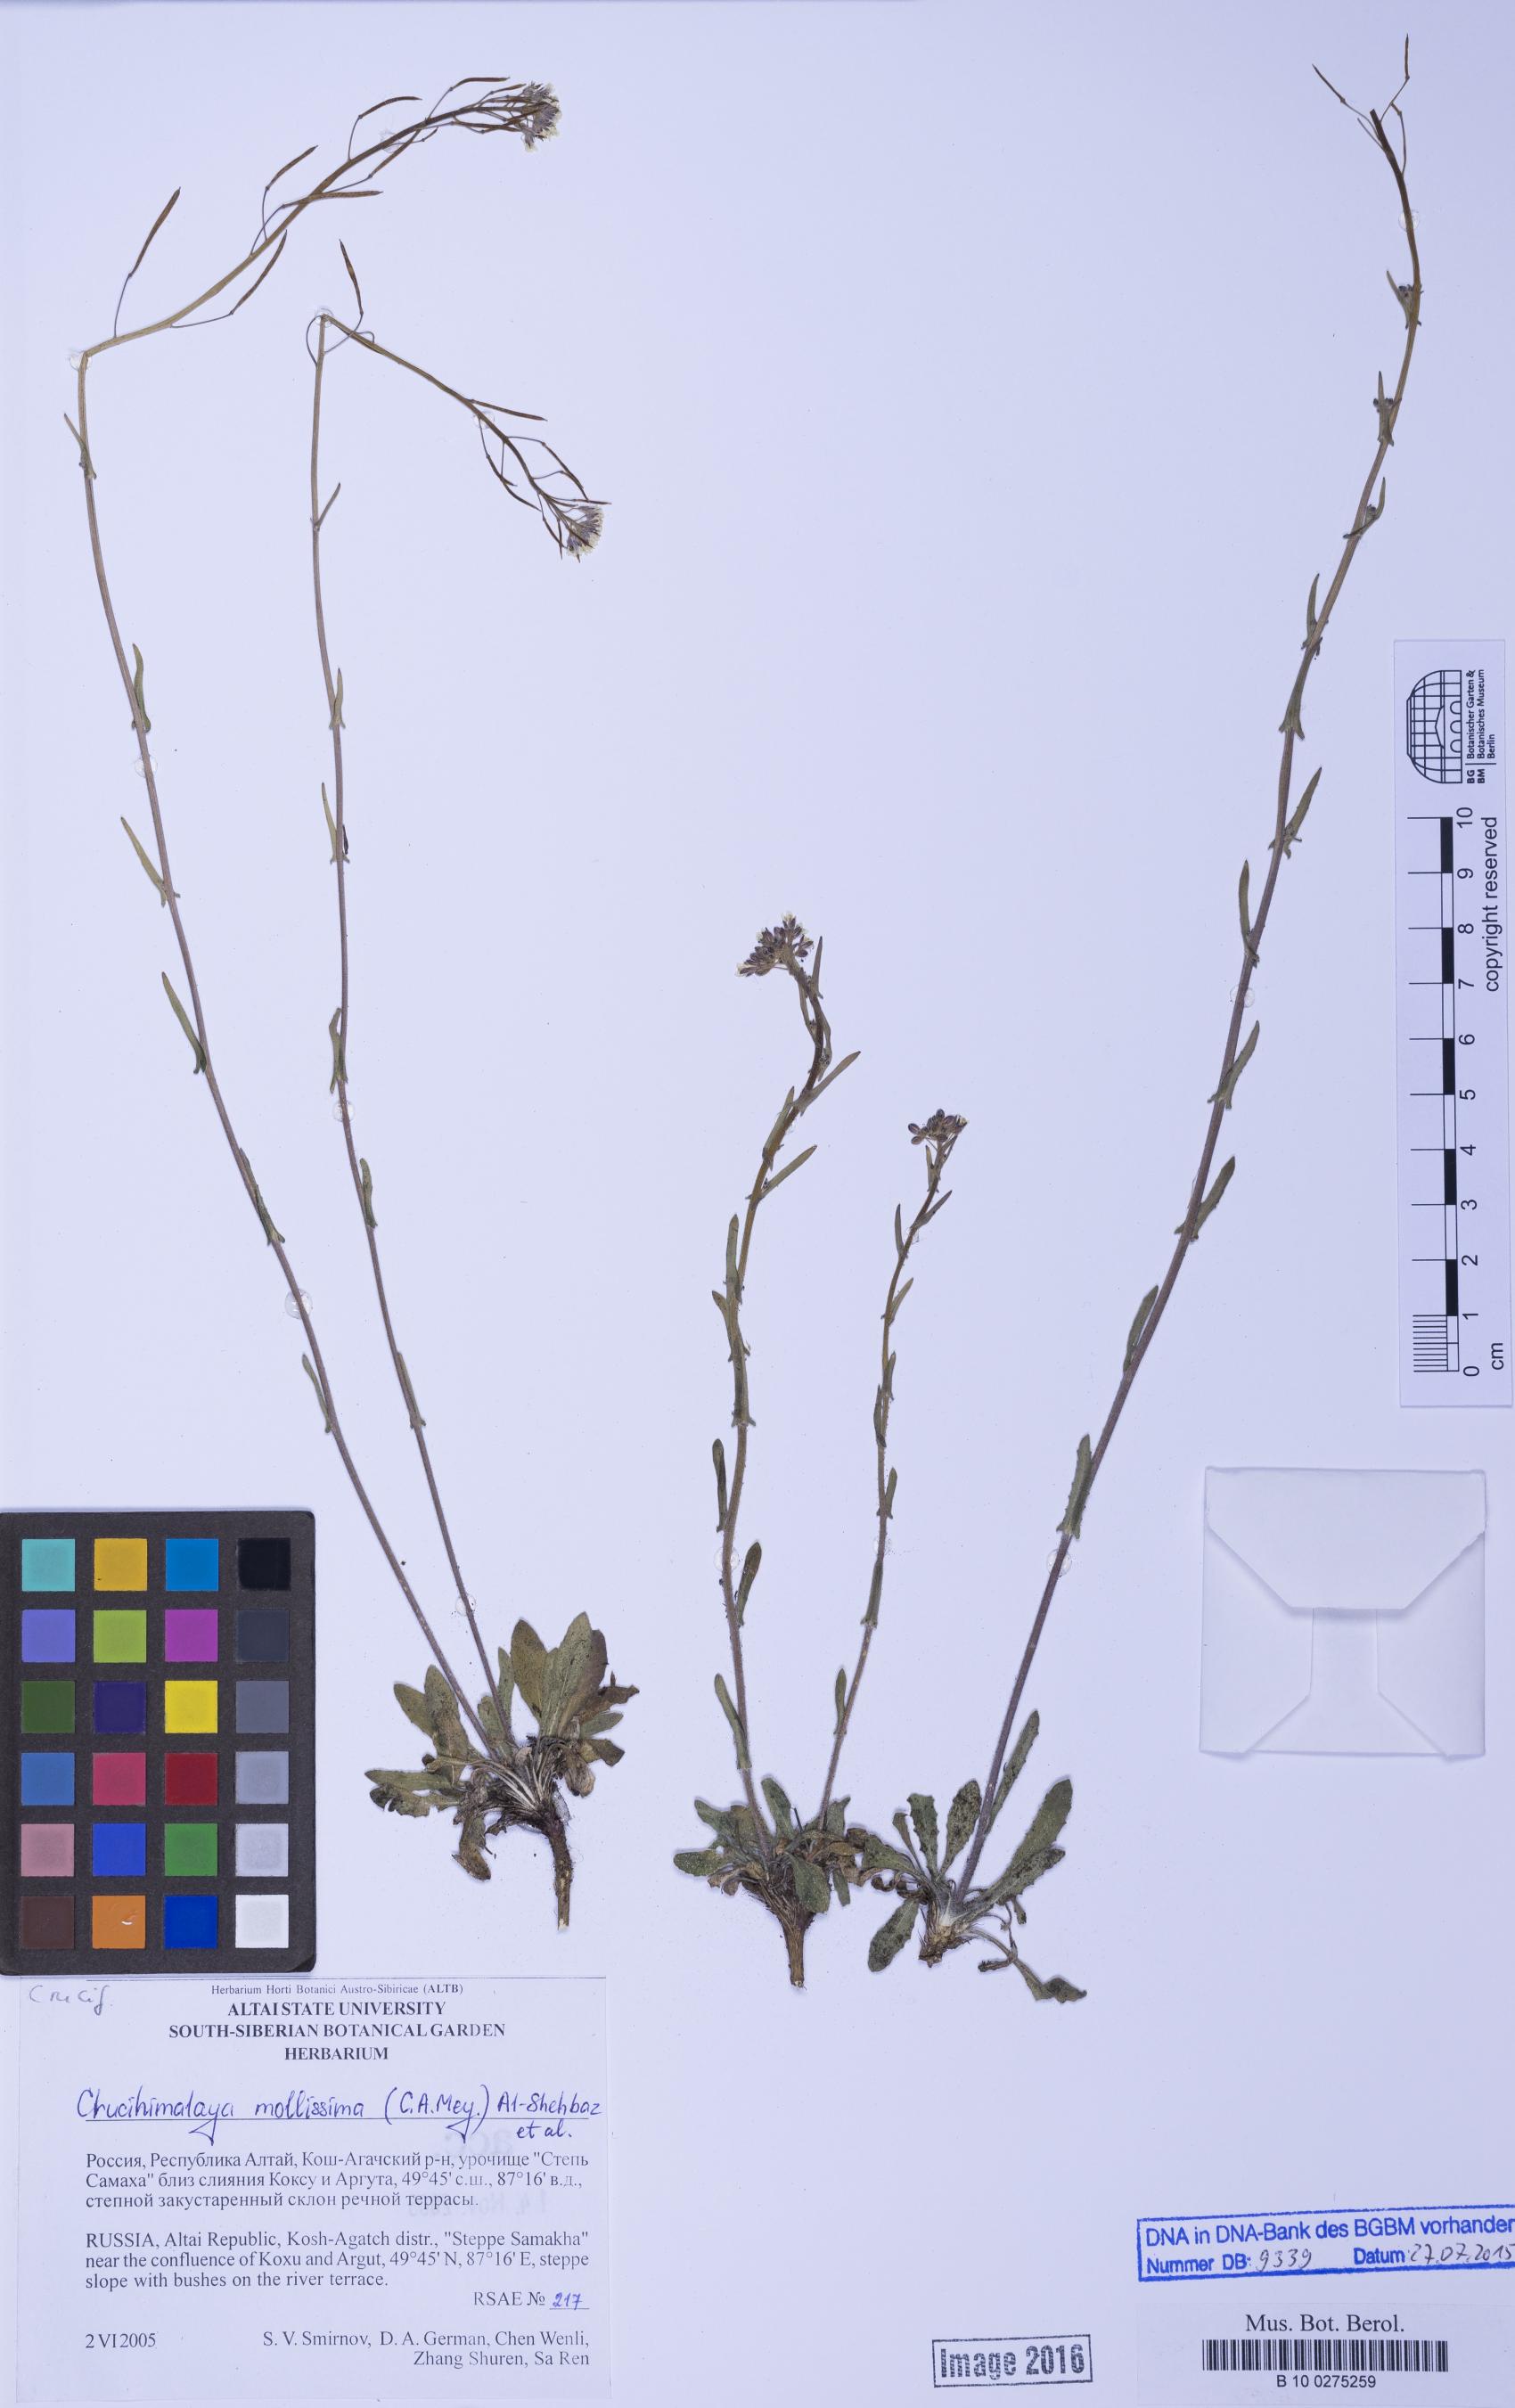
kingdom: Plantae
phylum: Tracheophyta
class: Magnoliopsida
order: Brassicales
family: Brassicaceae
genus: Crucihimalaya
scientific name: Crucihimalaya mollissima
